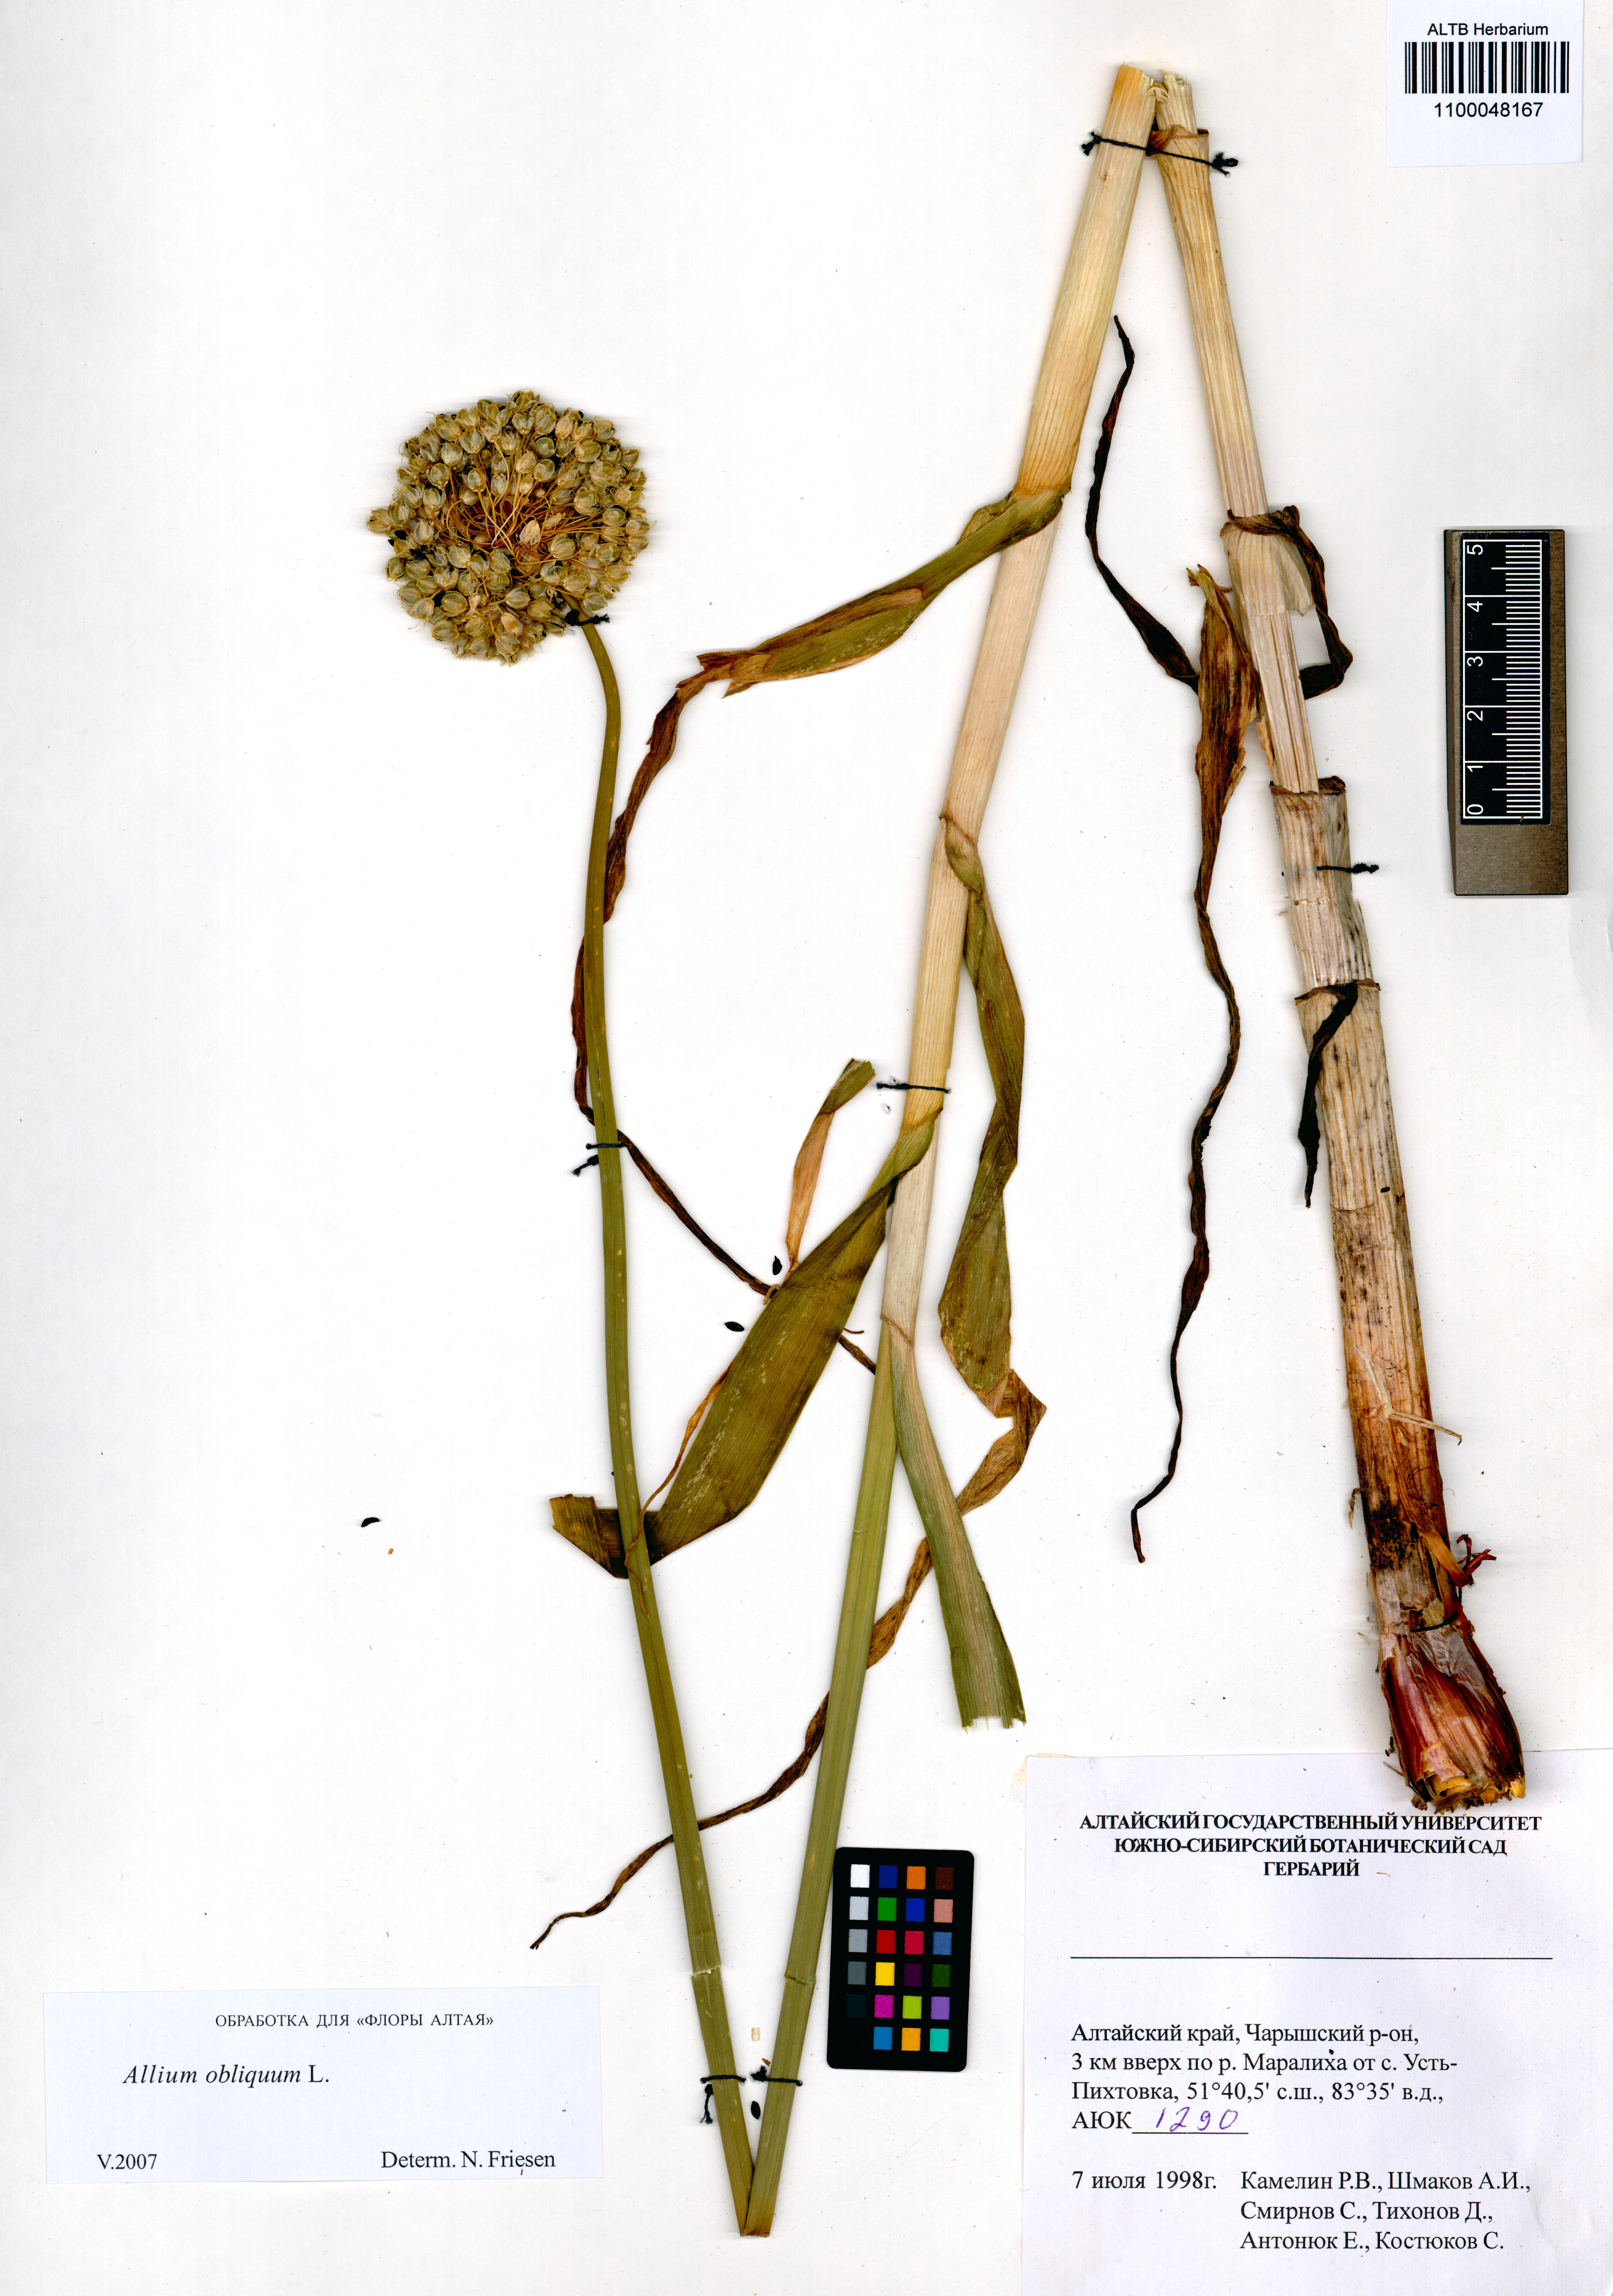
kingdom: Plantae
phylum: Tracheophyta
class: Liliopsida
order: Asparagales
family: Amaryllidaceae
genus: Allium
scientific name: Allium obliquum
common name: Oblique onion
